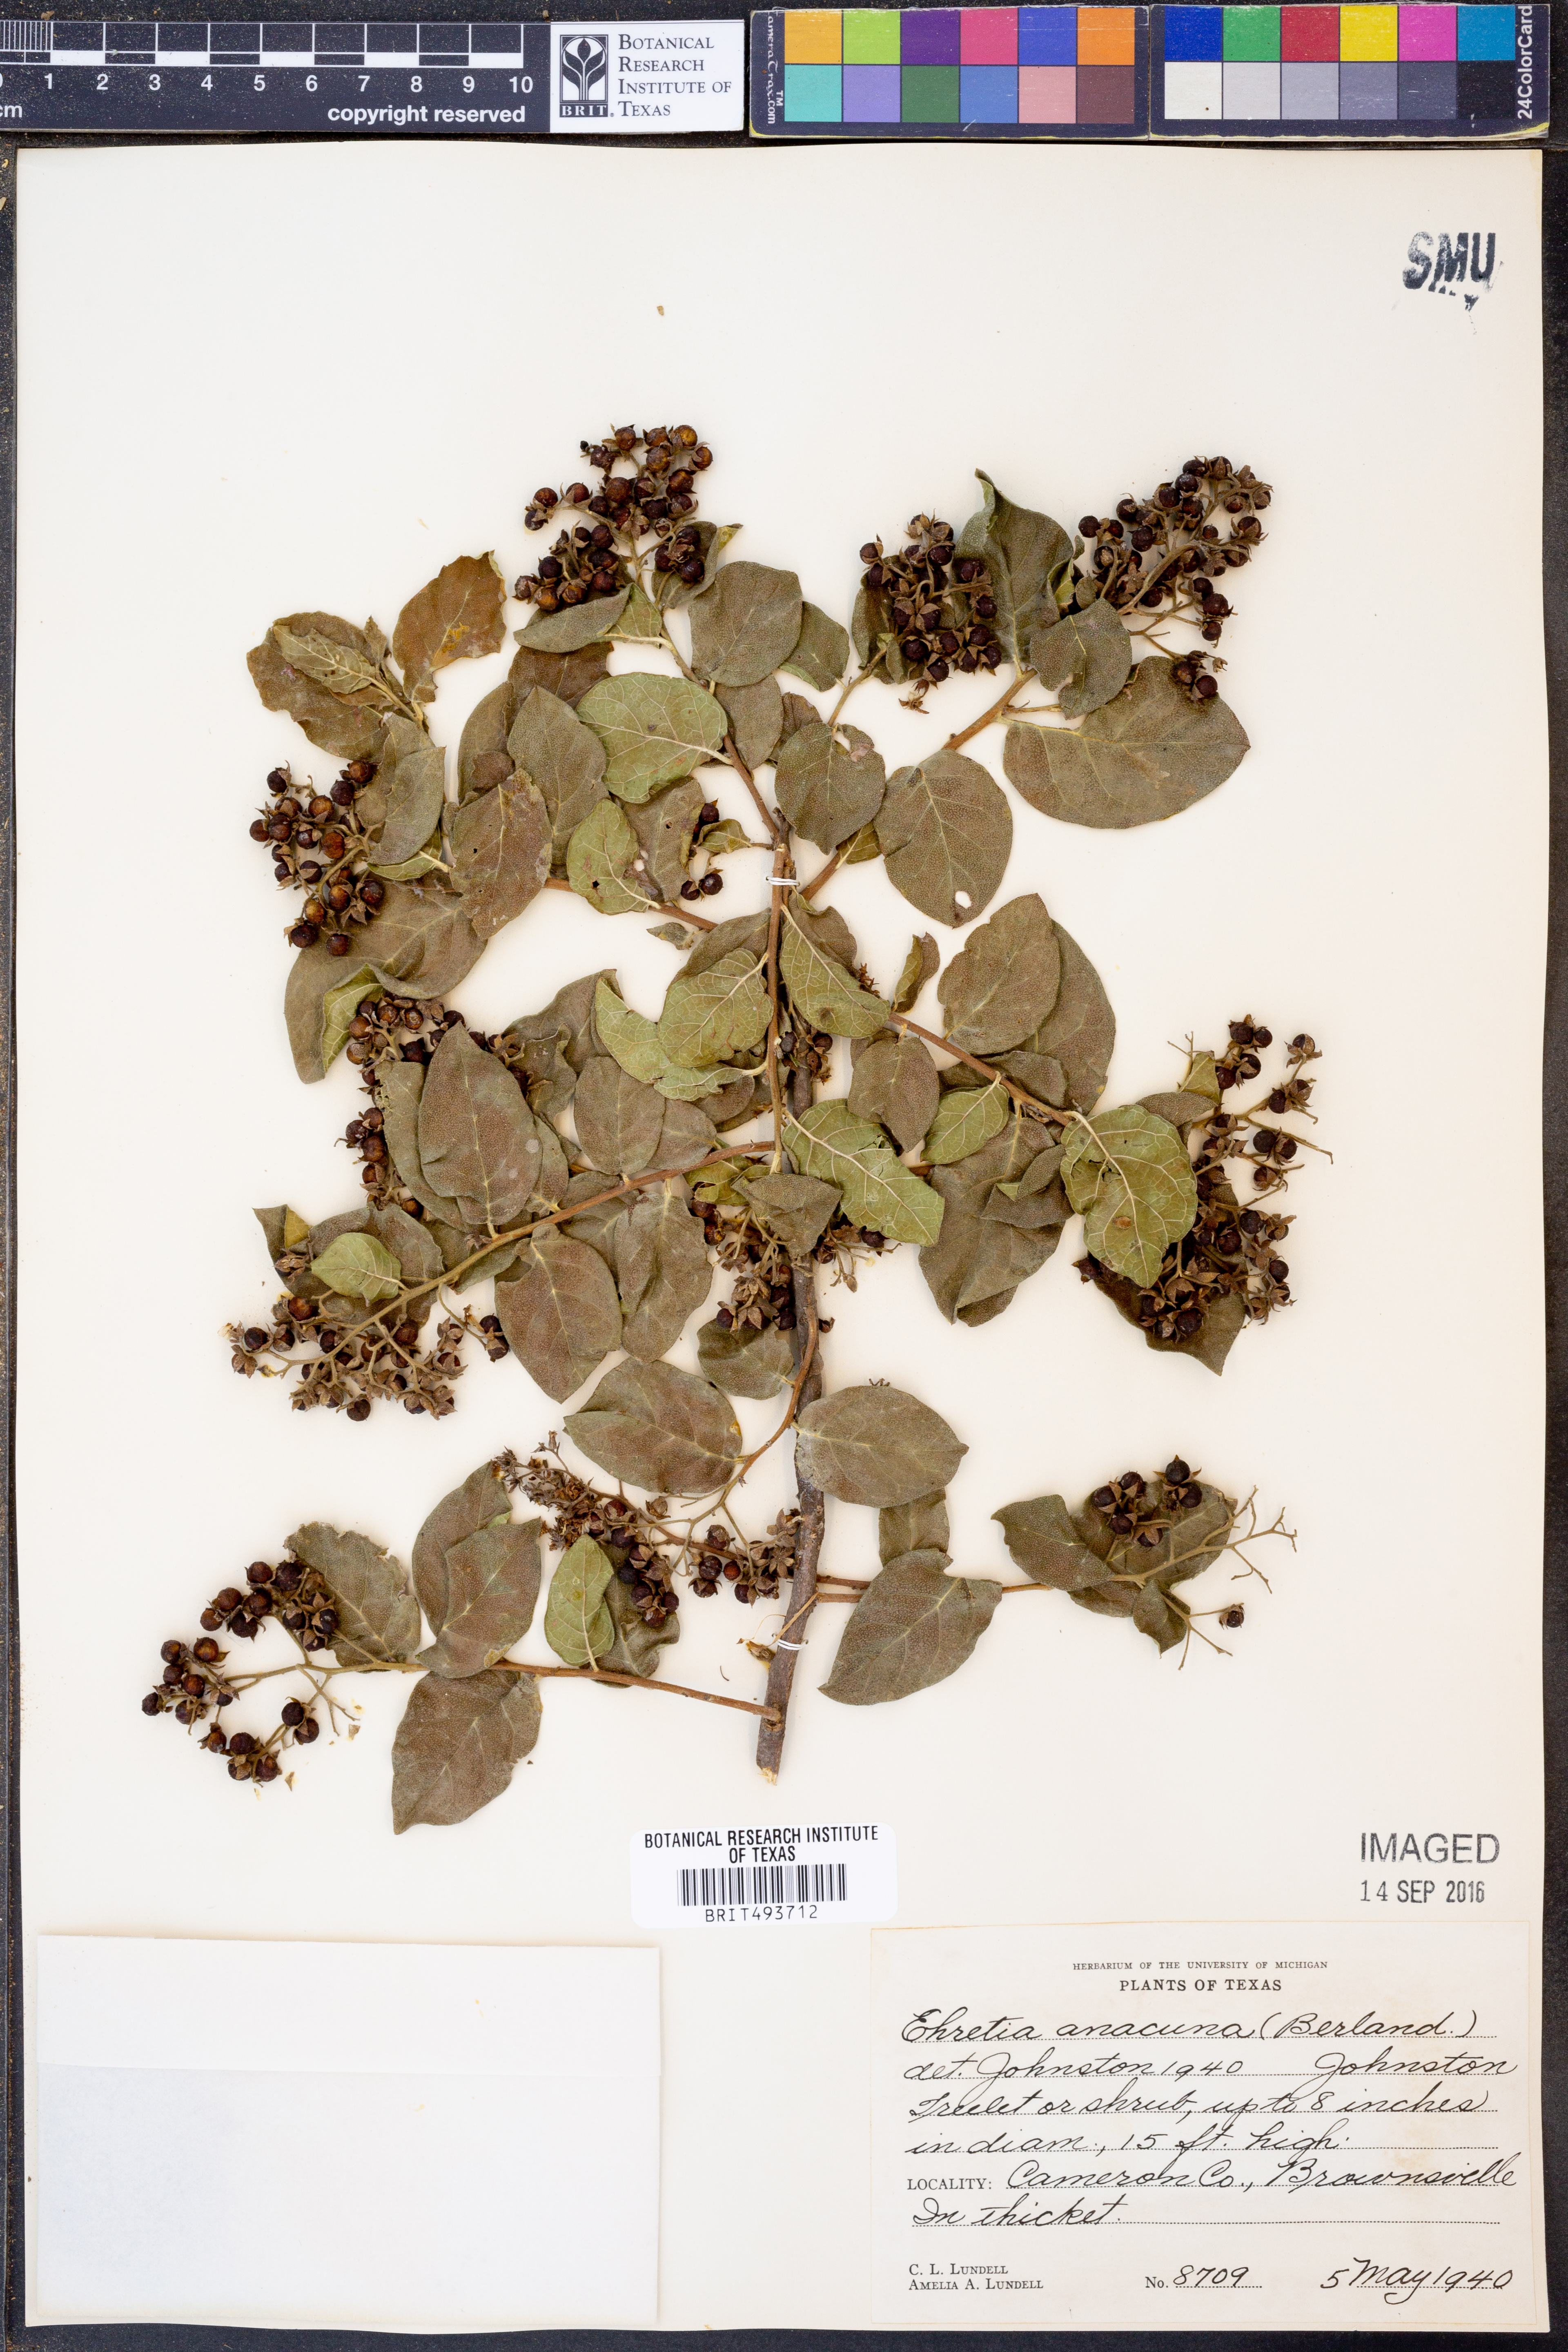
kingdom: Plantae
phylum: Tracheophyta
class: Magnoliopsida
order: Boraginales
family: Ehretiaceae
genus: Ehretia
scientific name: Ehretia anacua
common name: Sugarberry
